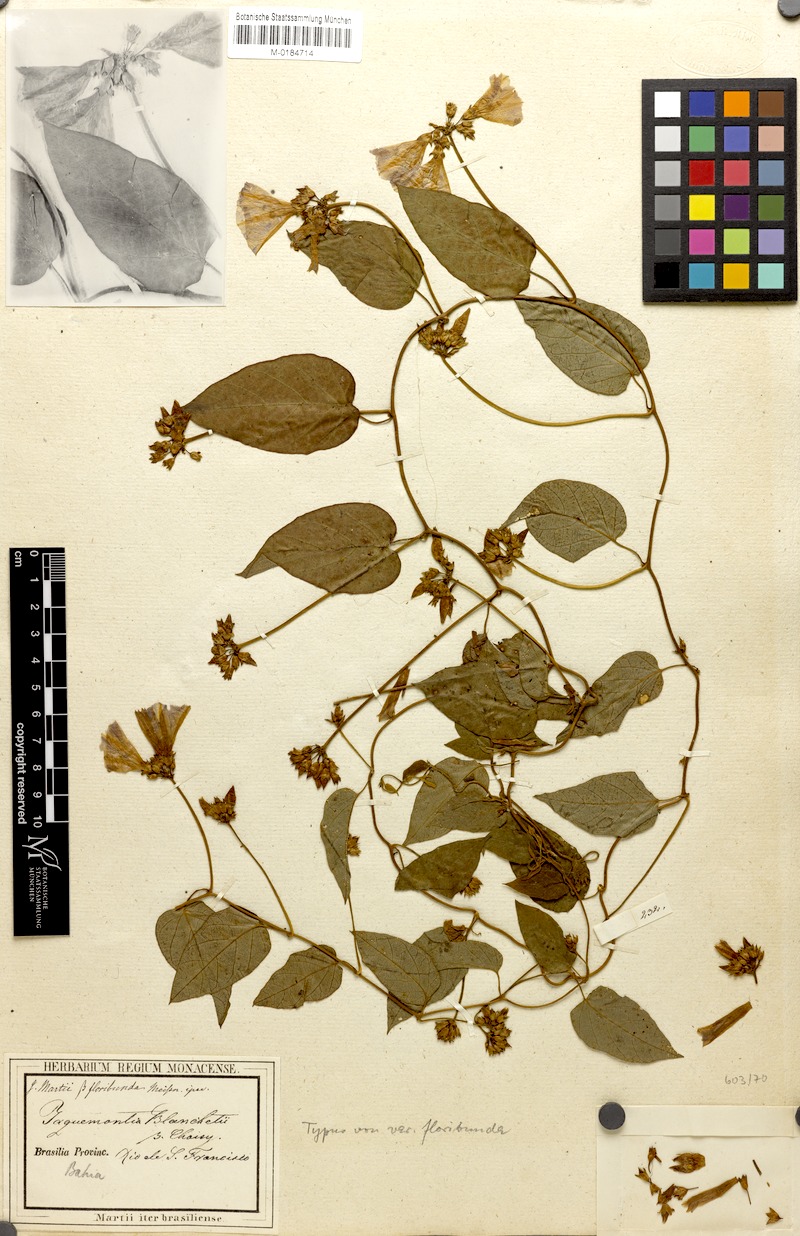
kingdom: Plantae
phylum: Tracheophyta
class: Magnoliopsida
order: Solanales
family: Convolvulaceae
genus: Jacquemontia
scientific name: Jacquemontia blanchetii
